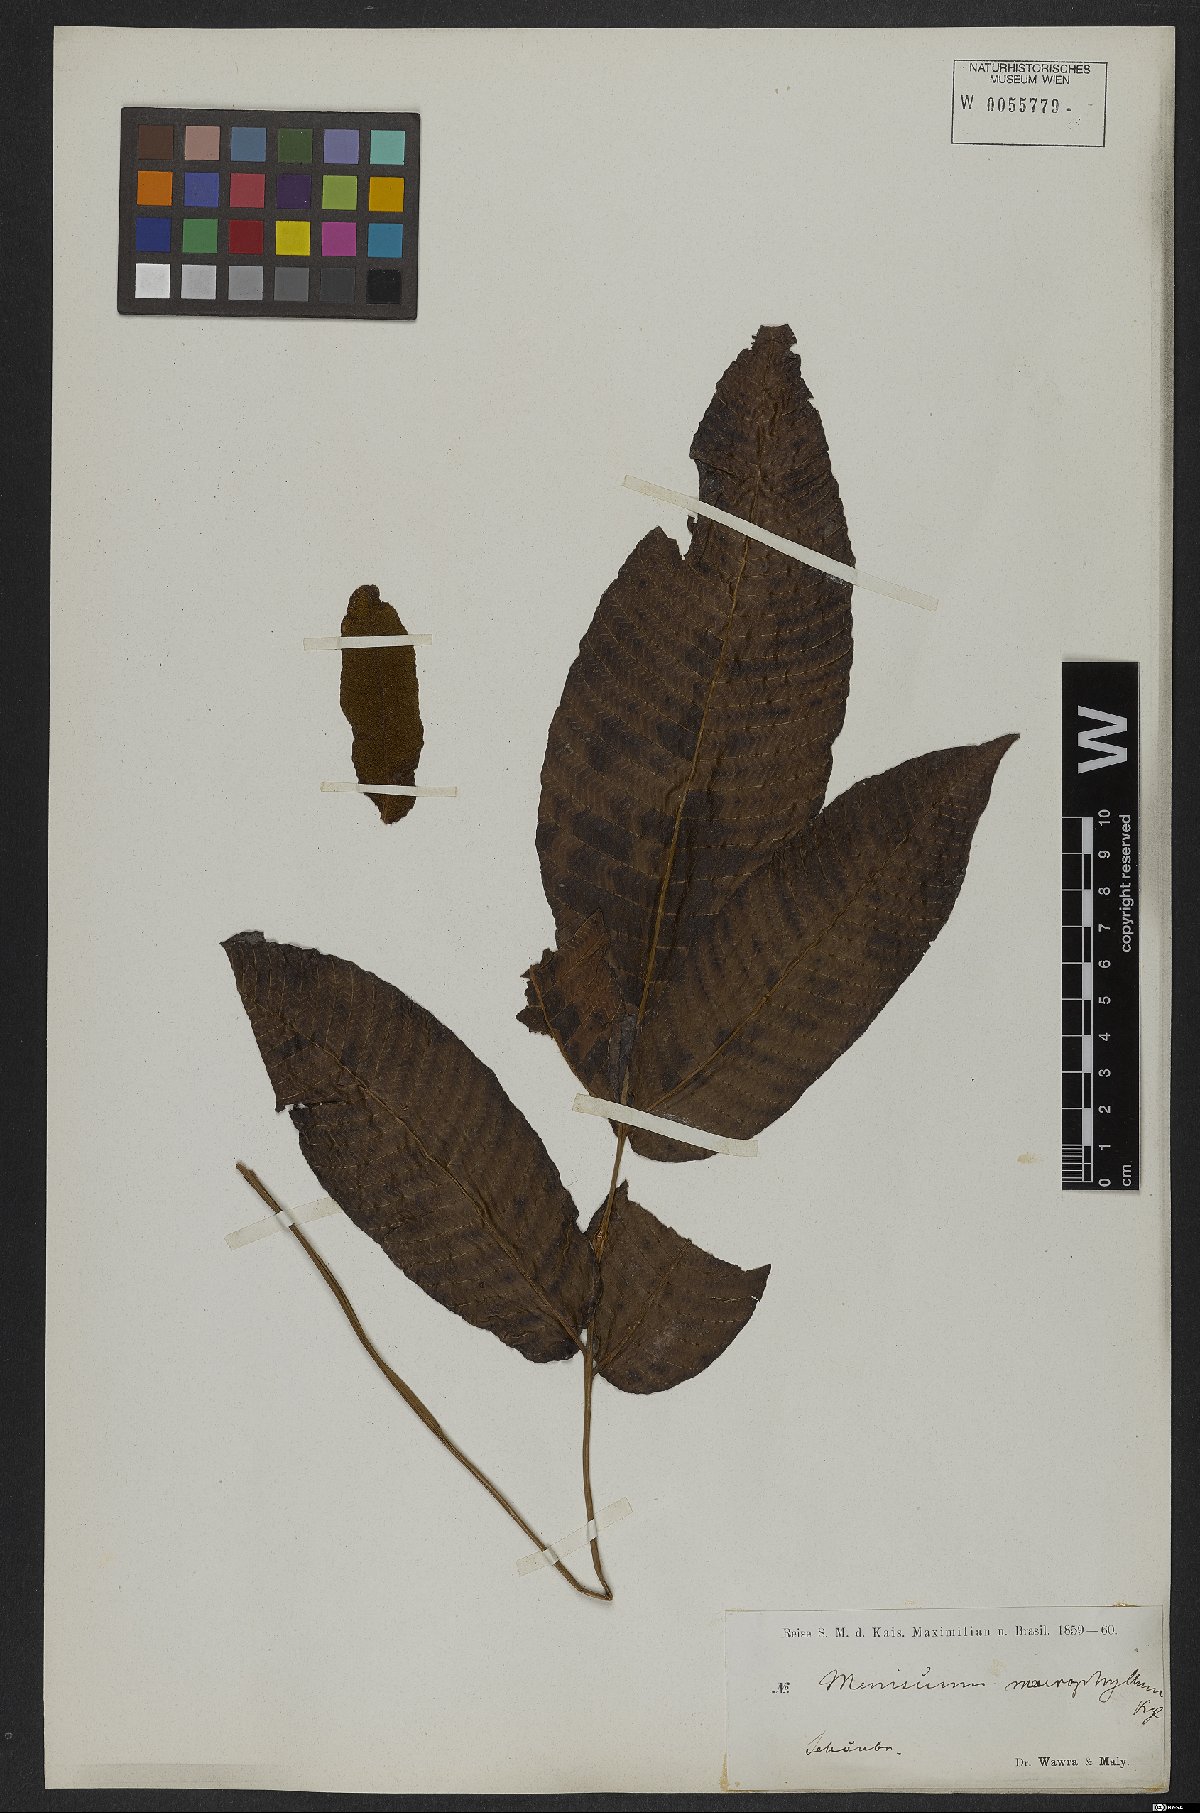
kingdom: Plantae
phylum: Tracheophyta
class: Polypodiopsida
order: Polypodiales
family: Thelypteridaceae
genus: Meniscium
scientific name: Meniscium reticulatum
